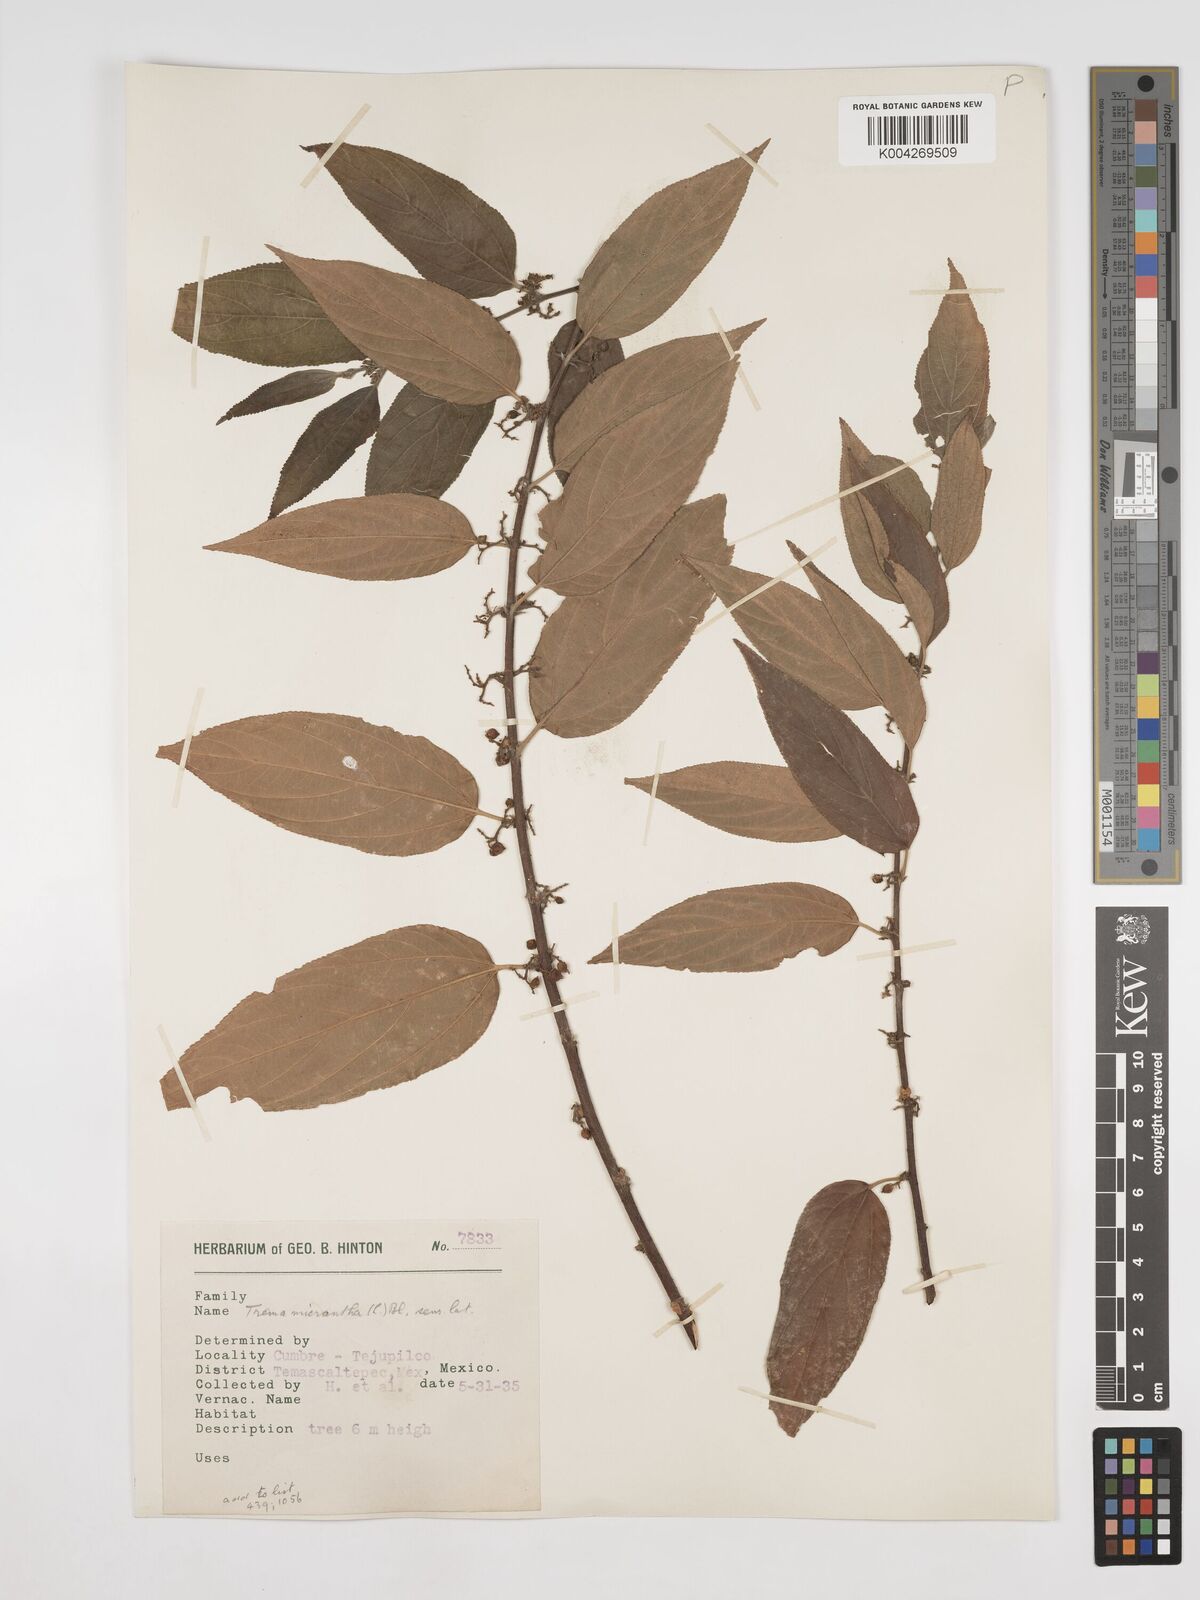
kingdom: Plantae
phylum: Tracheophyta
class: Magnoliopsida
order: Rosales
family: Cannabaceae
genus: Trema
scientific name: Trema micranthum
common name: Jamaican nettletree
